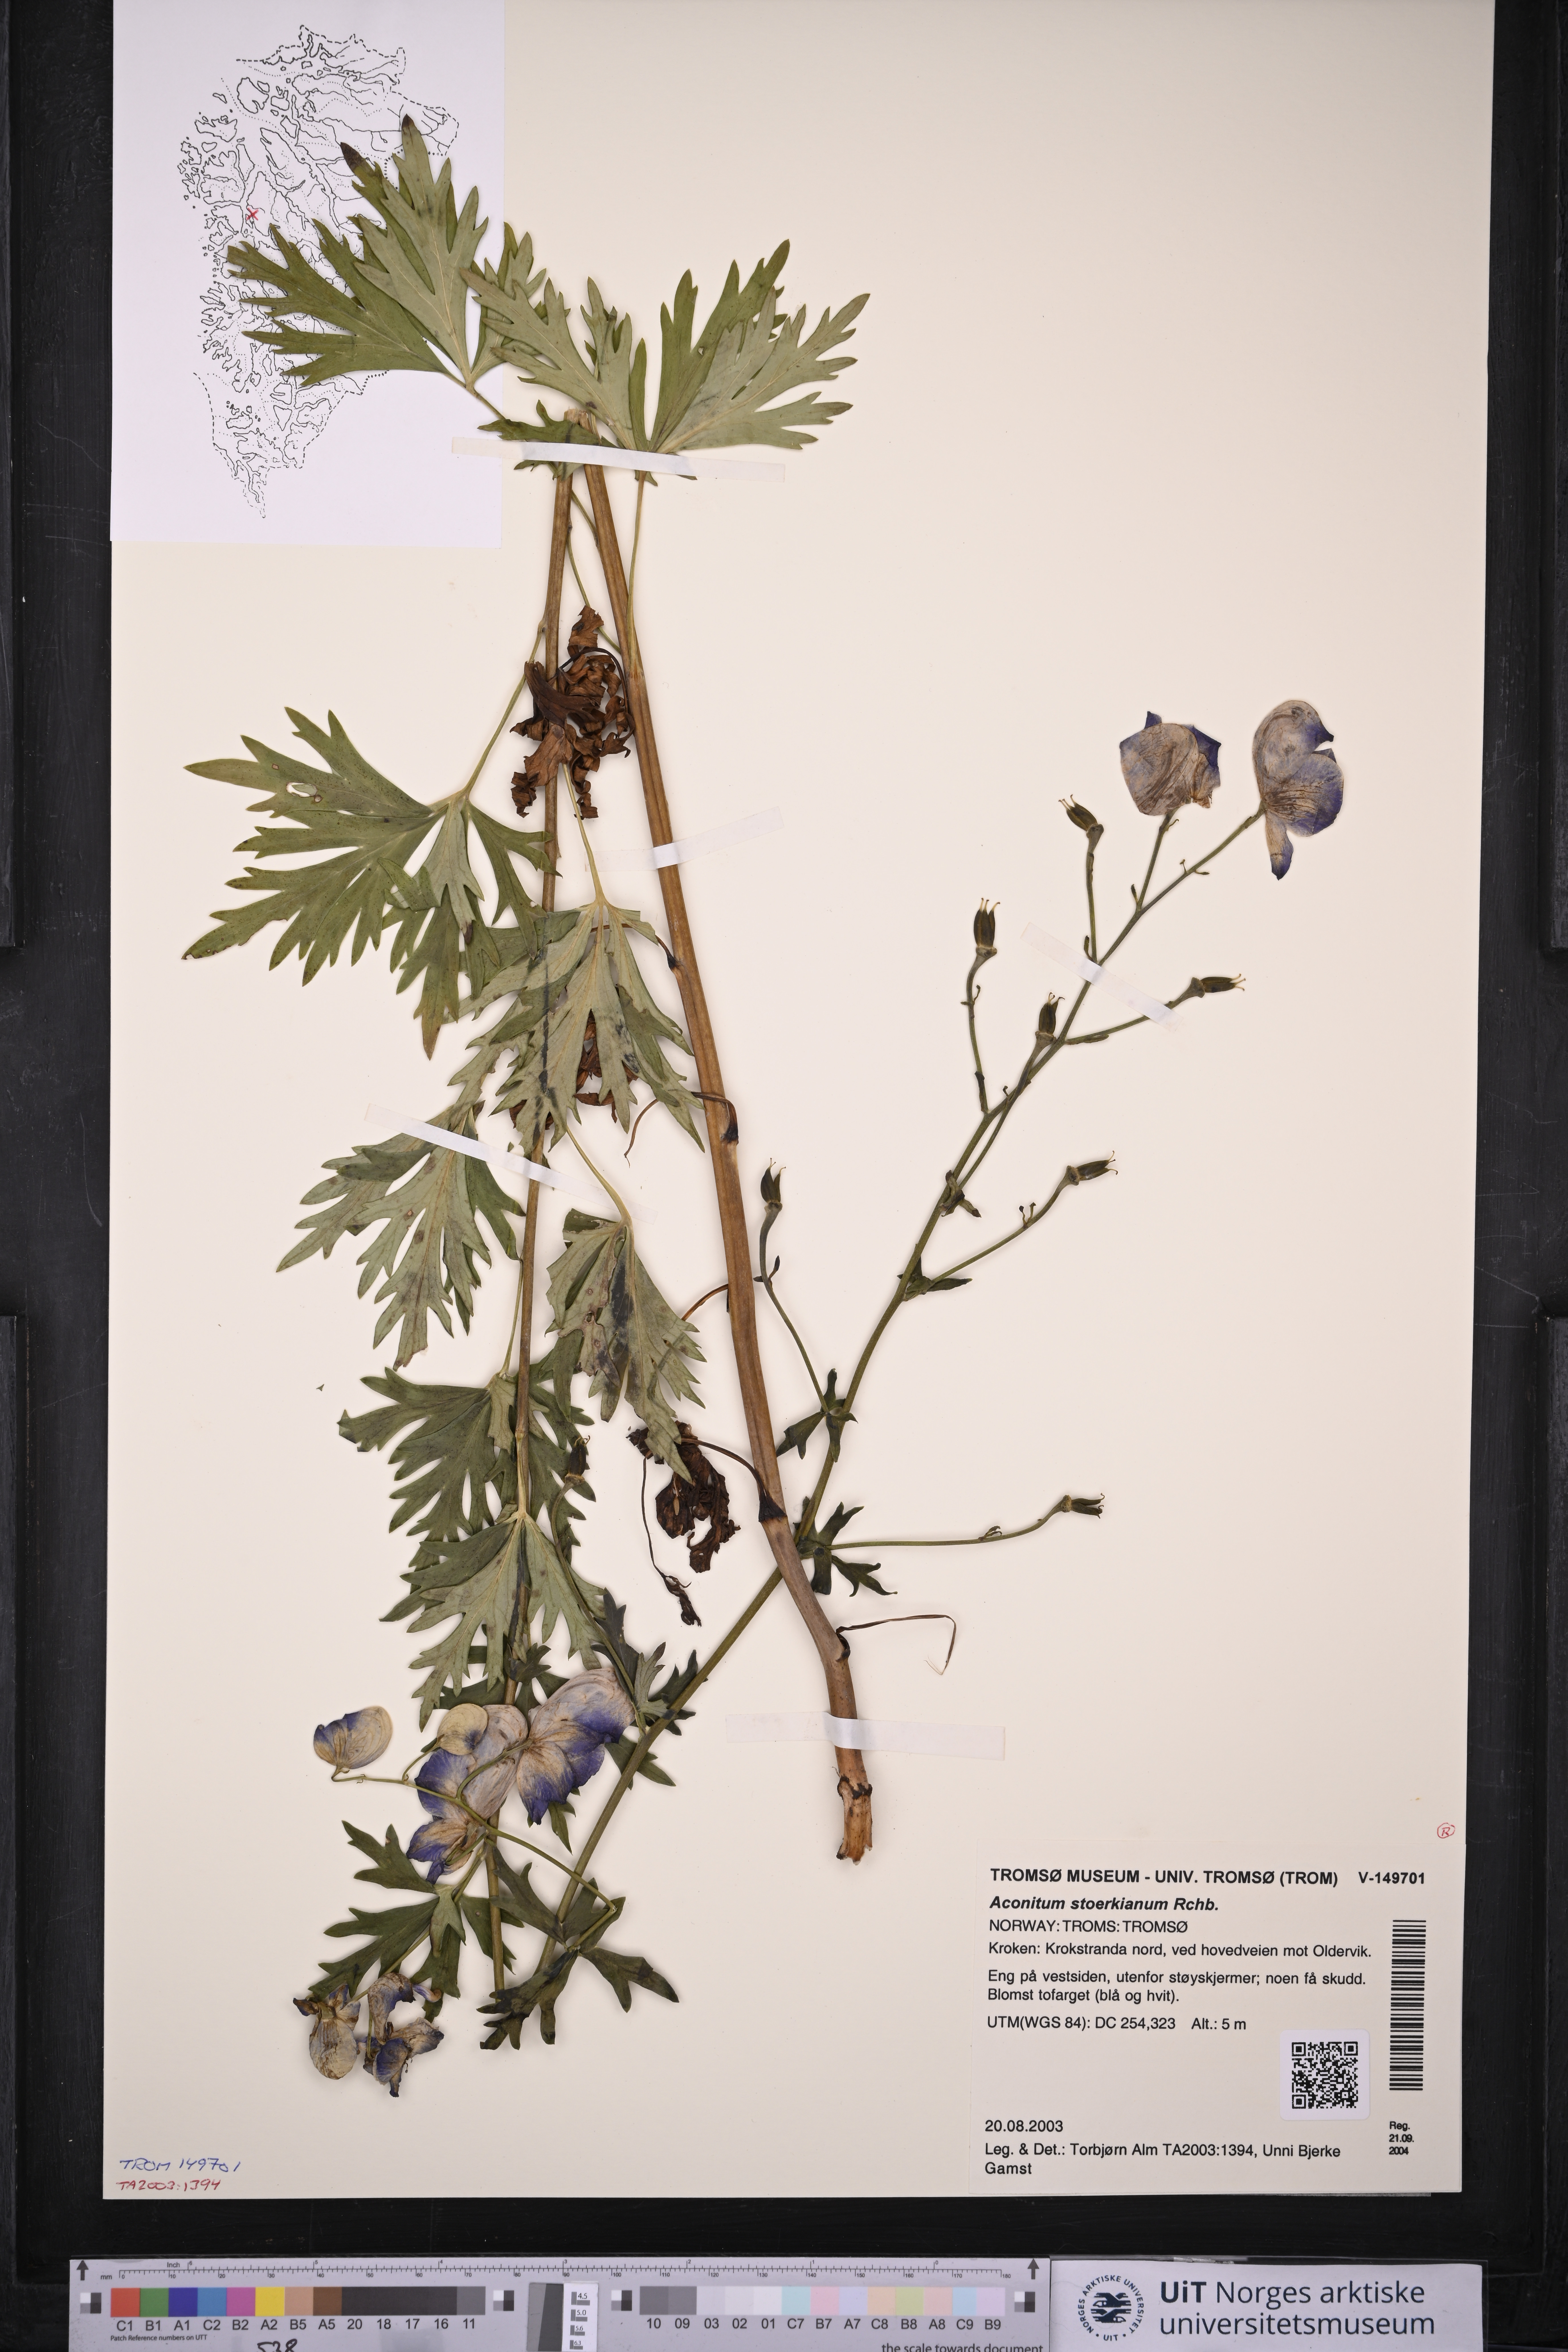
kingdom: Plantae
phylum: Tracheophyta
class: Magnoliopsida
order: Ranunculales
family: Ranunculaceae
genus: Aconitum
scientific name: Aconitum cammarum
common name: Hybrid monk's-hood
